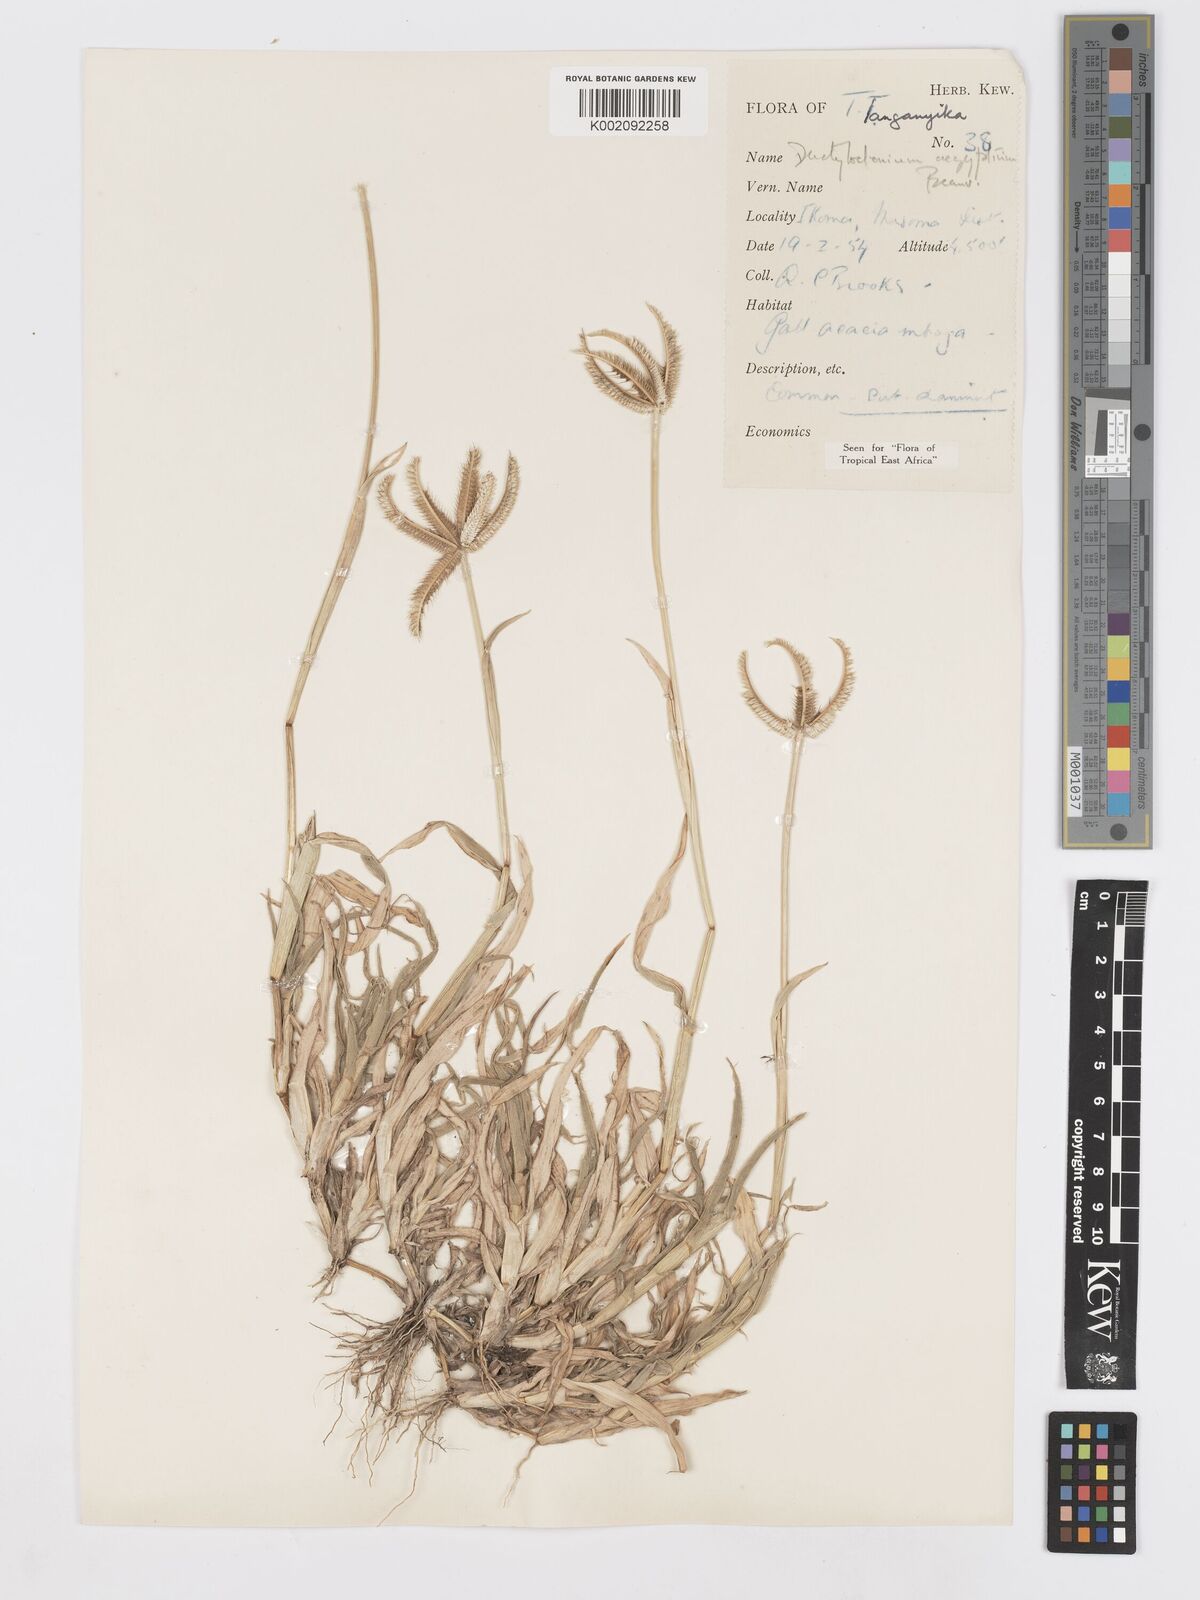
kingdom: Plantae
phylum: Tracheophyta
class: Liliopsida
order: Poales
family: Poaceae
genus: Dactyloctenium
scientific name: Dactyloctenium aegyptium
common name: Egyptian grass
